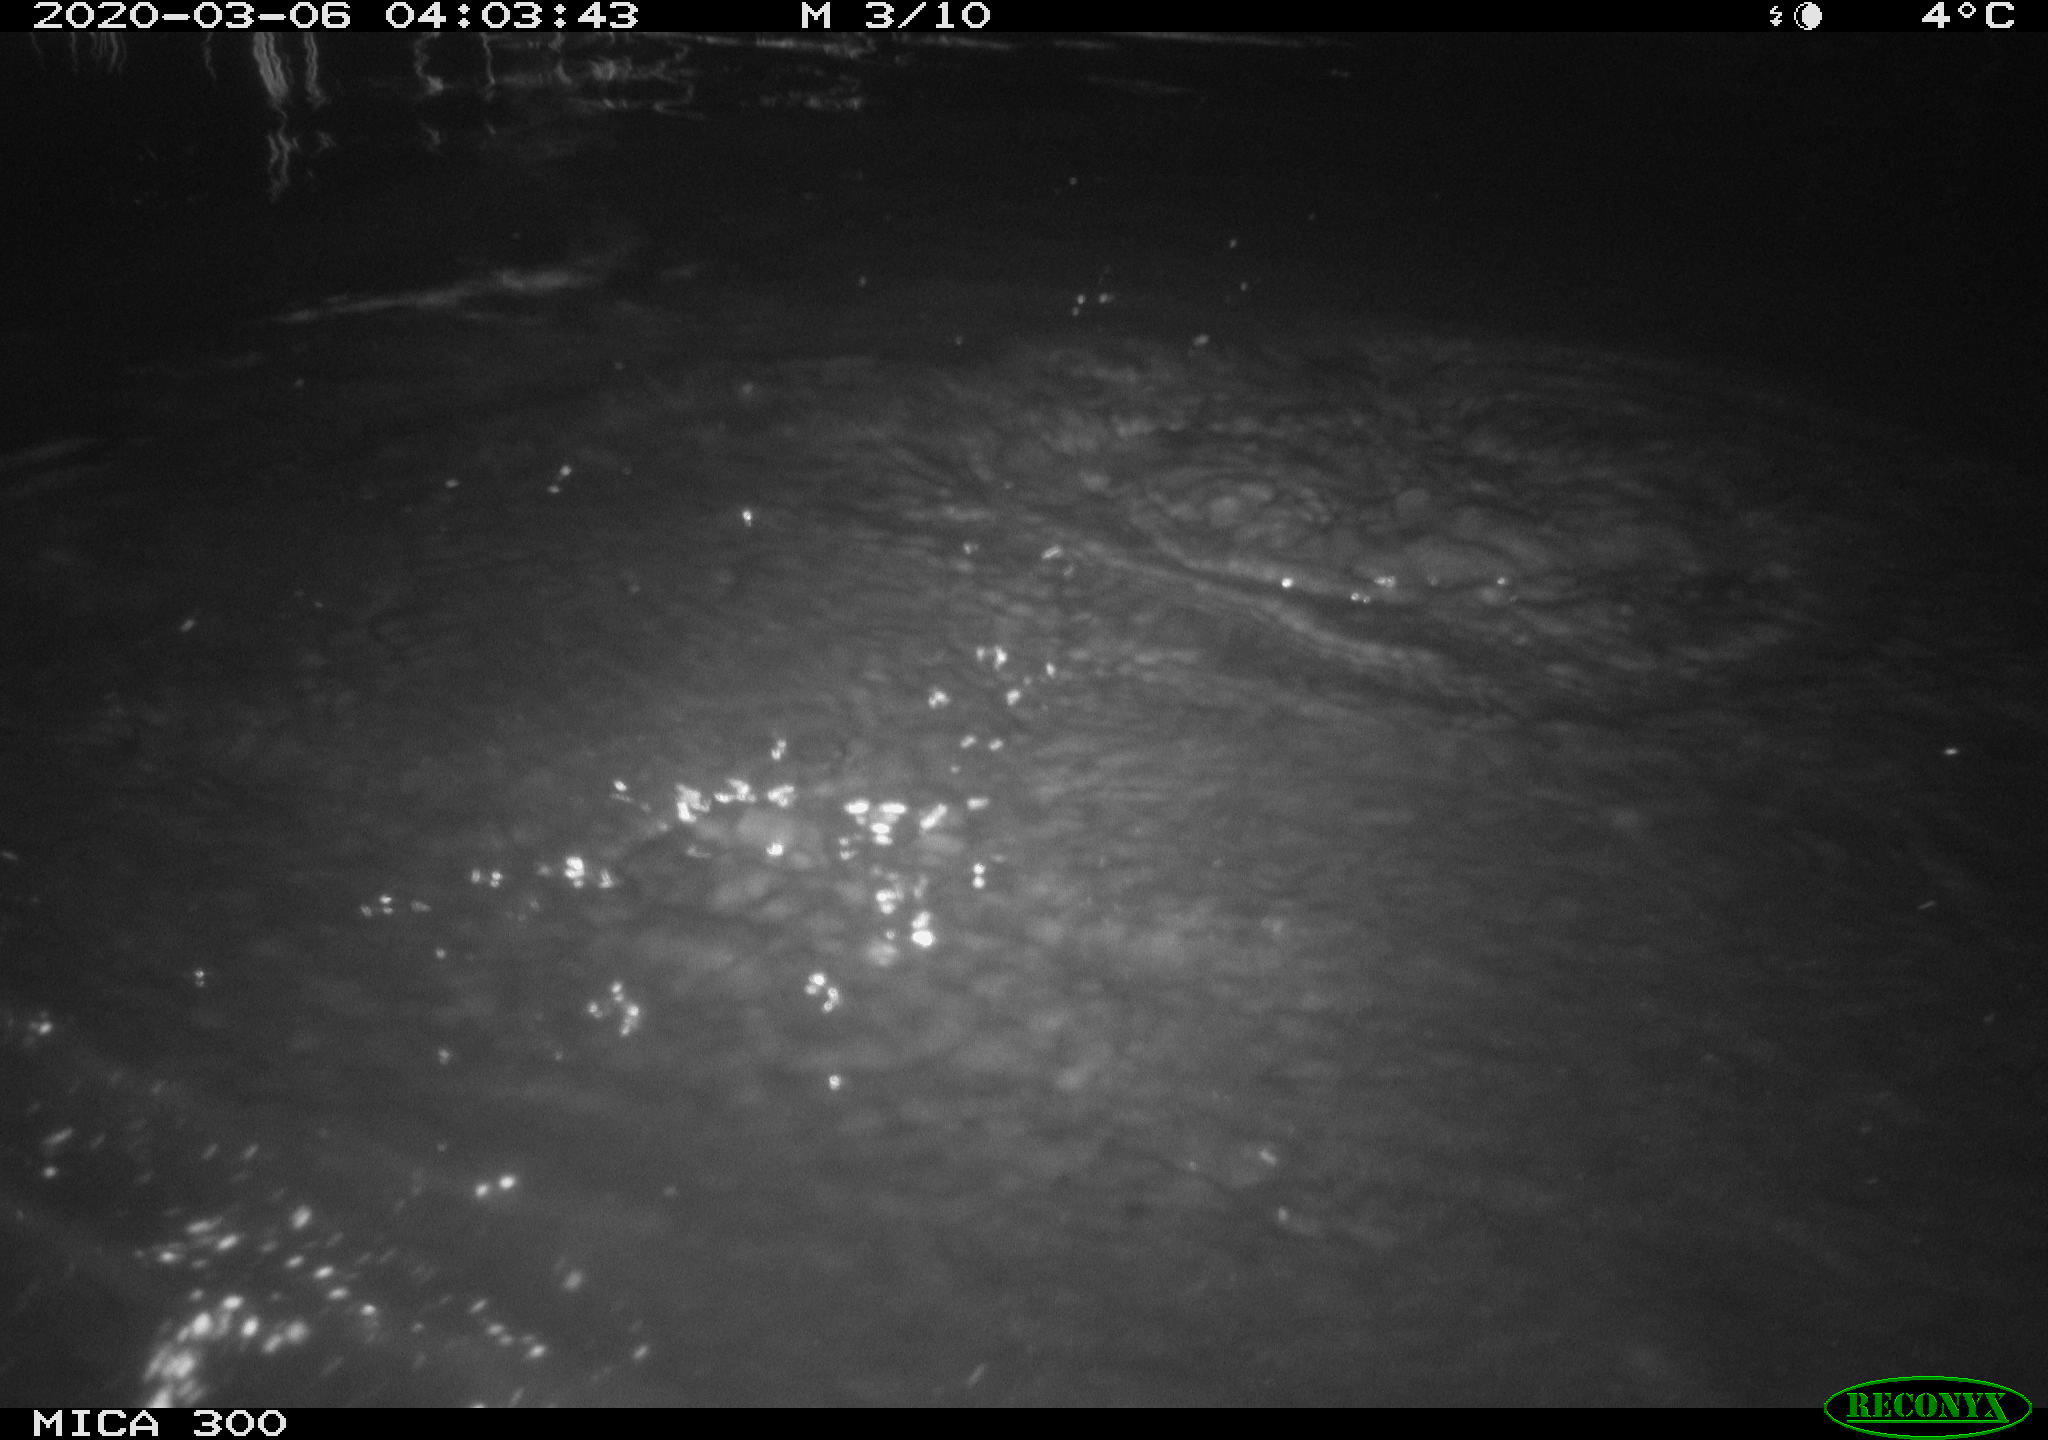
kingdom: Animalia
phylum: Chordata
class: Mammalia
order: Rodentia
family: Castoridae
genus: Castor
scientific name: Castor fiber
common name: Eurasian beaver
